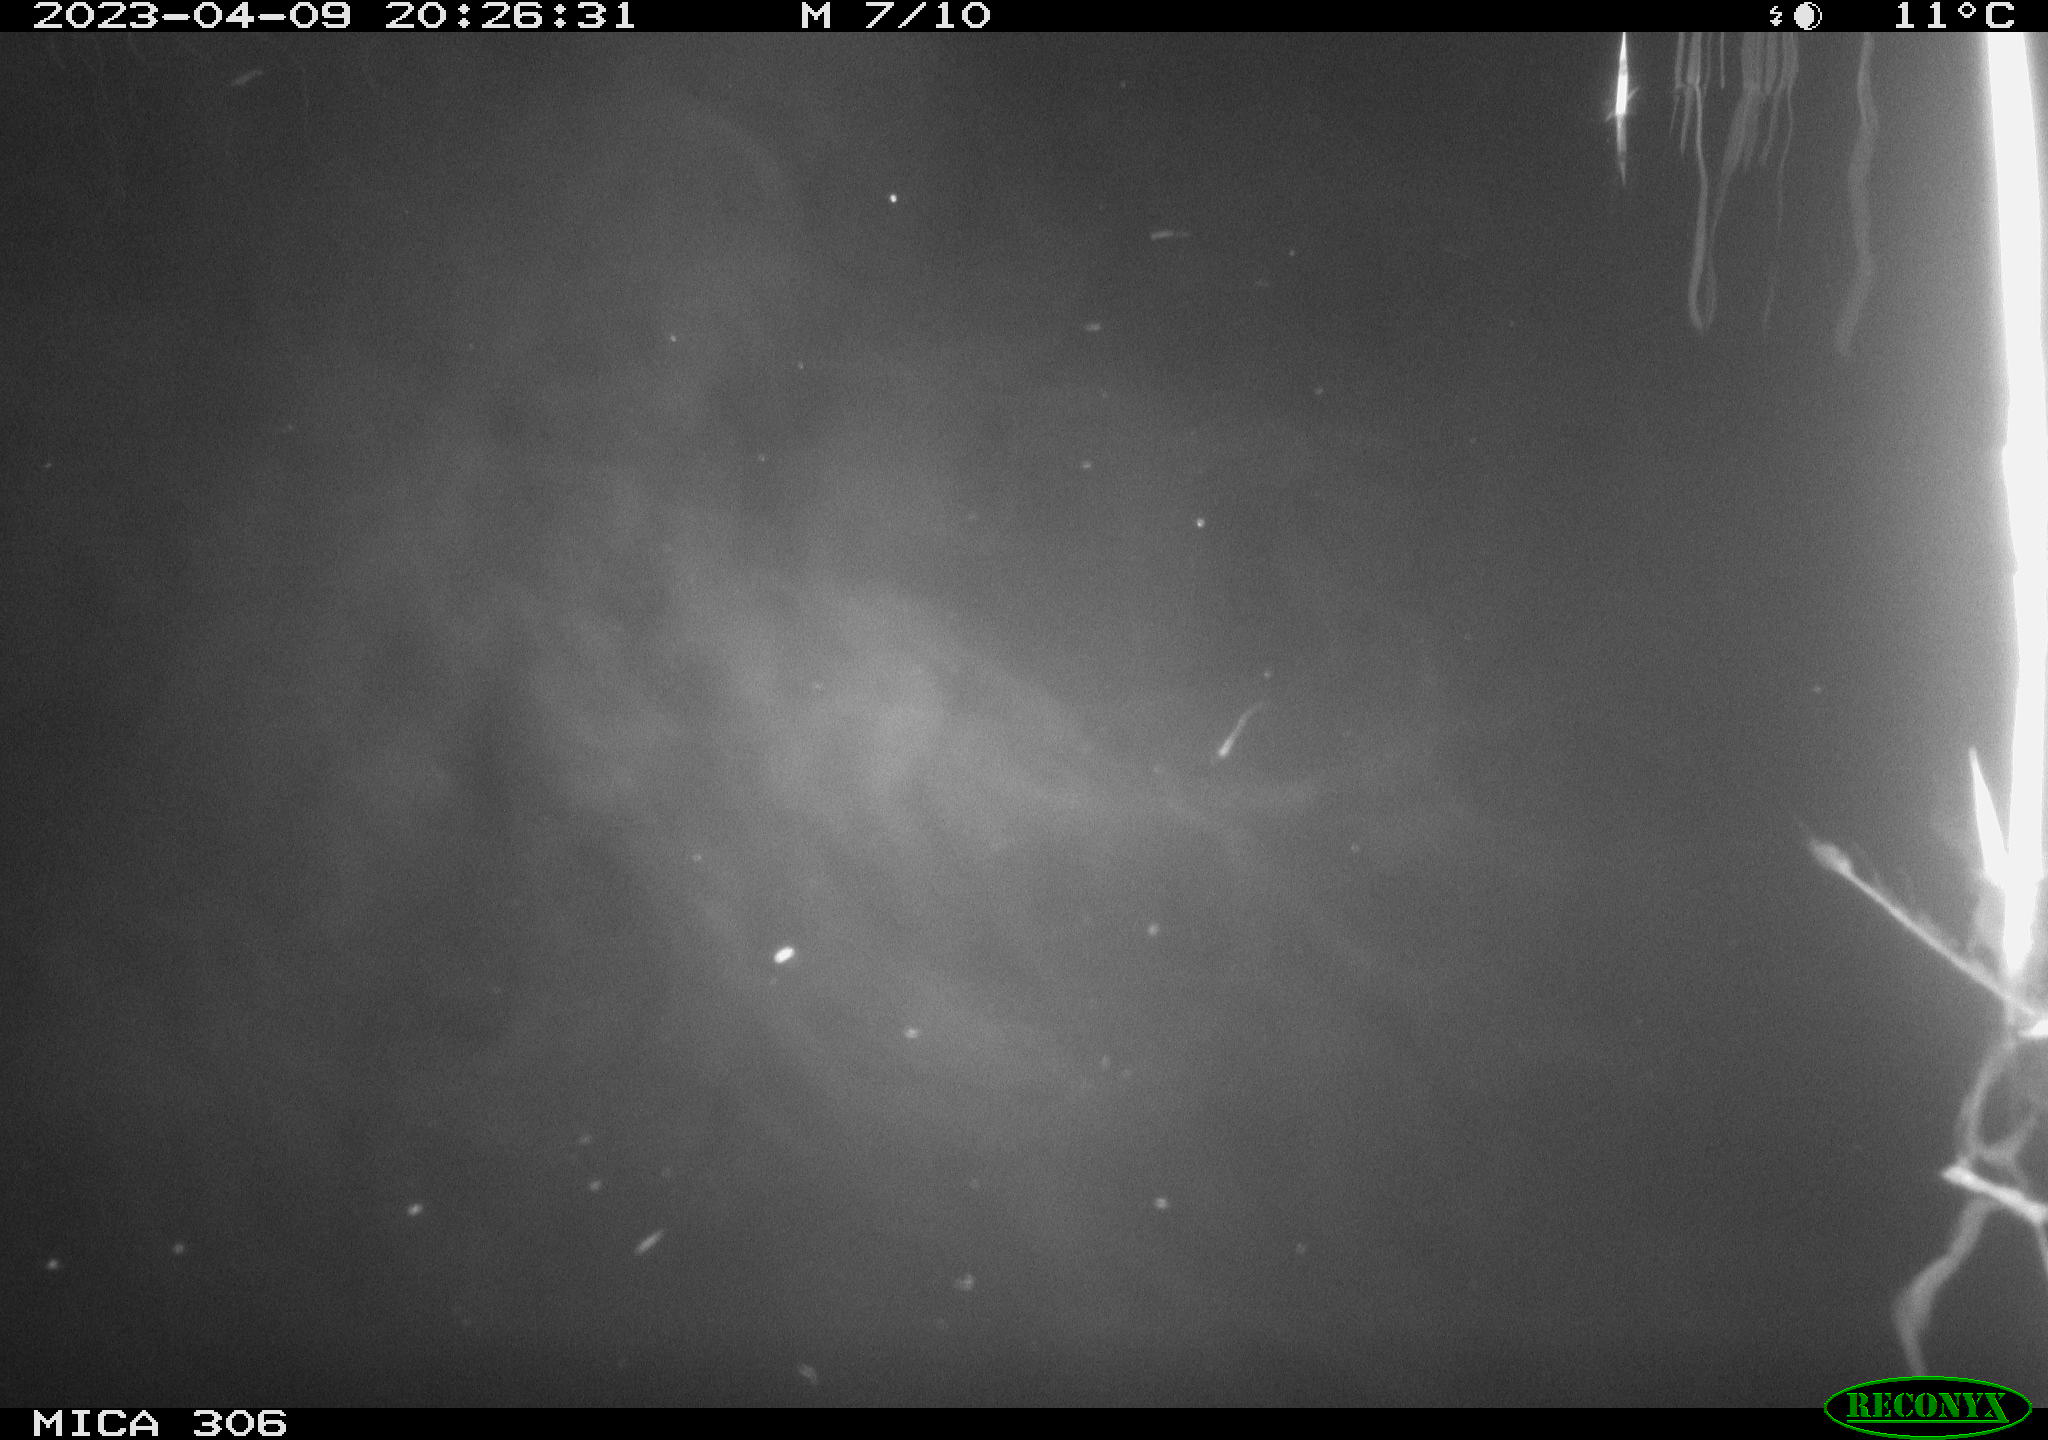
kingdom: Animalia
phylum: Chordata
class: Aves
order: Anseriformes
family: Anatidae
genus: Anas
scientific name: Anas
